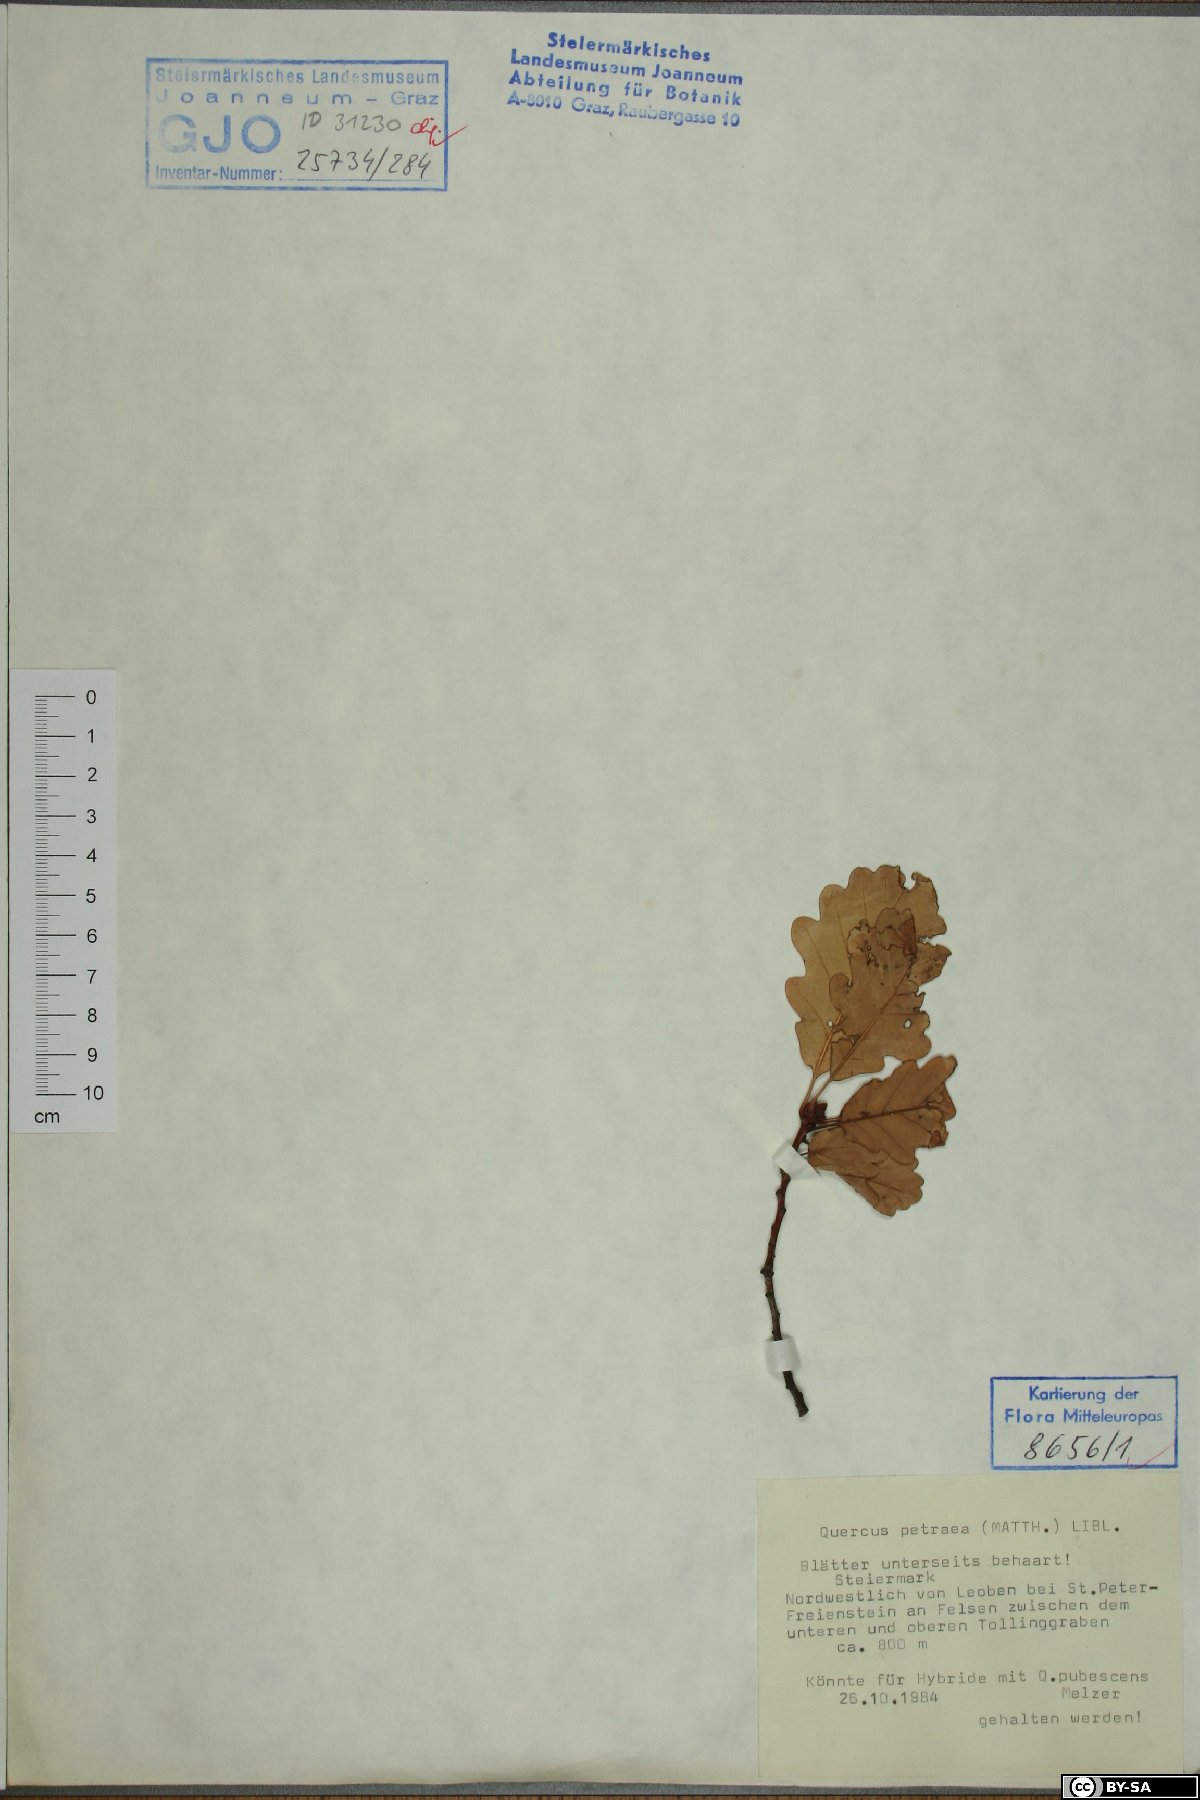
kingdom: Plantae
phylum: Tracheophyta
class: Magnoliopsida
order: Fagales
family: Fagaceae
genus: Quercus
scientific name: Quercus petraea
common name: Sessile oak
